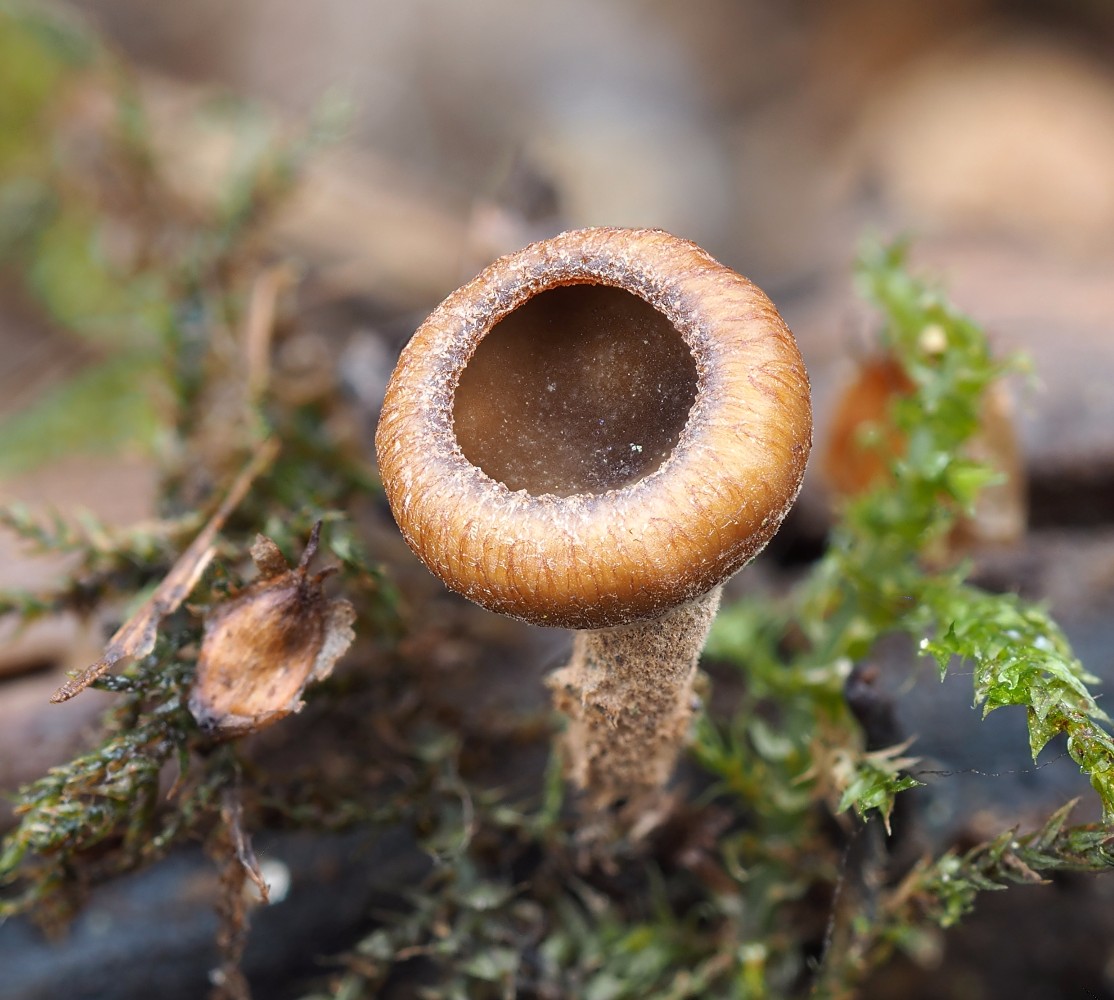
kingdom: Fungi
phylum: Ascomycota
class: Leotiomycetes
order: Helotiales
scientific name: Helotiales
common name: stilkskiveordenen
